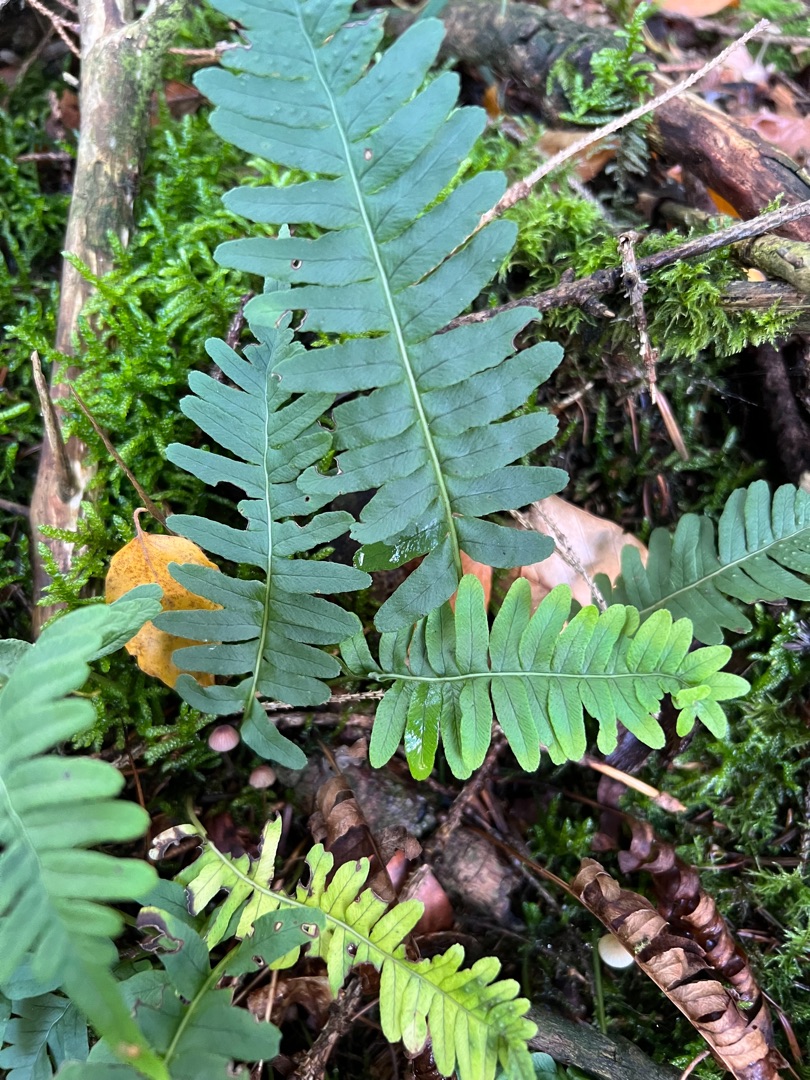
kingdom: Plantae
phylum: Tracheophyta
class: Polypodiopsida
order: Polypodiales
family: Polypodiaceae
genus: Polypodium
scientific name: Polypodium vulgare
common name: Almindelig engelsød
